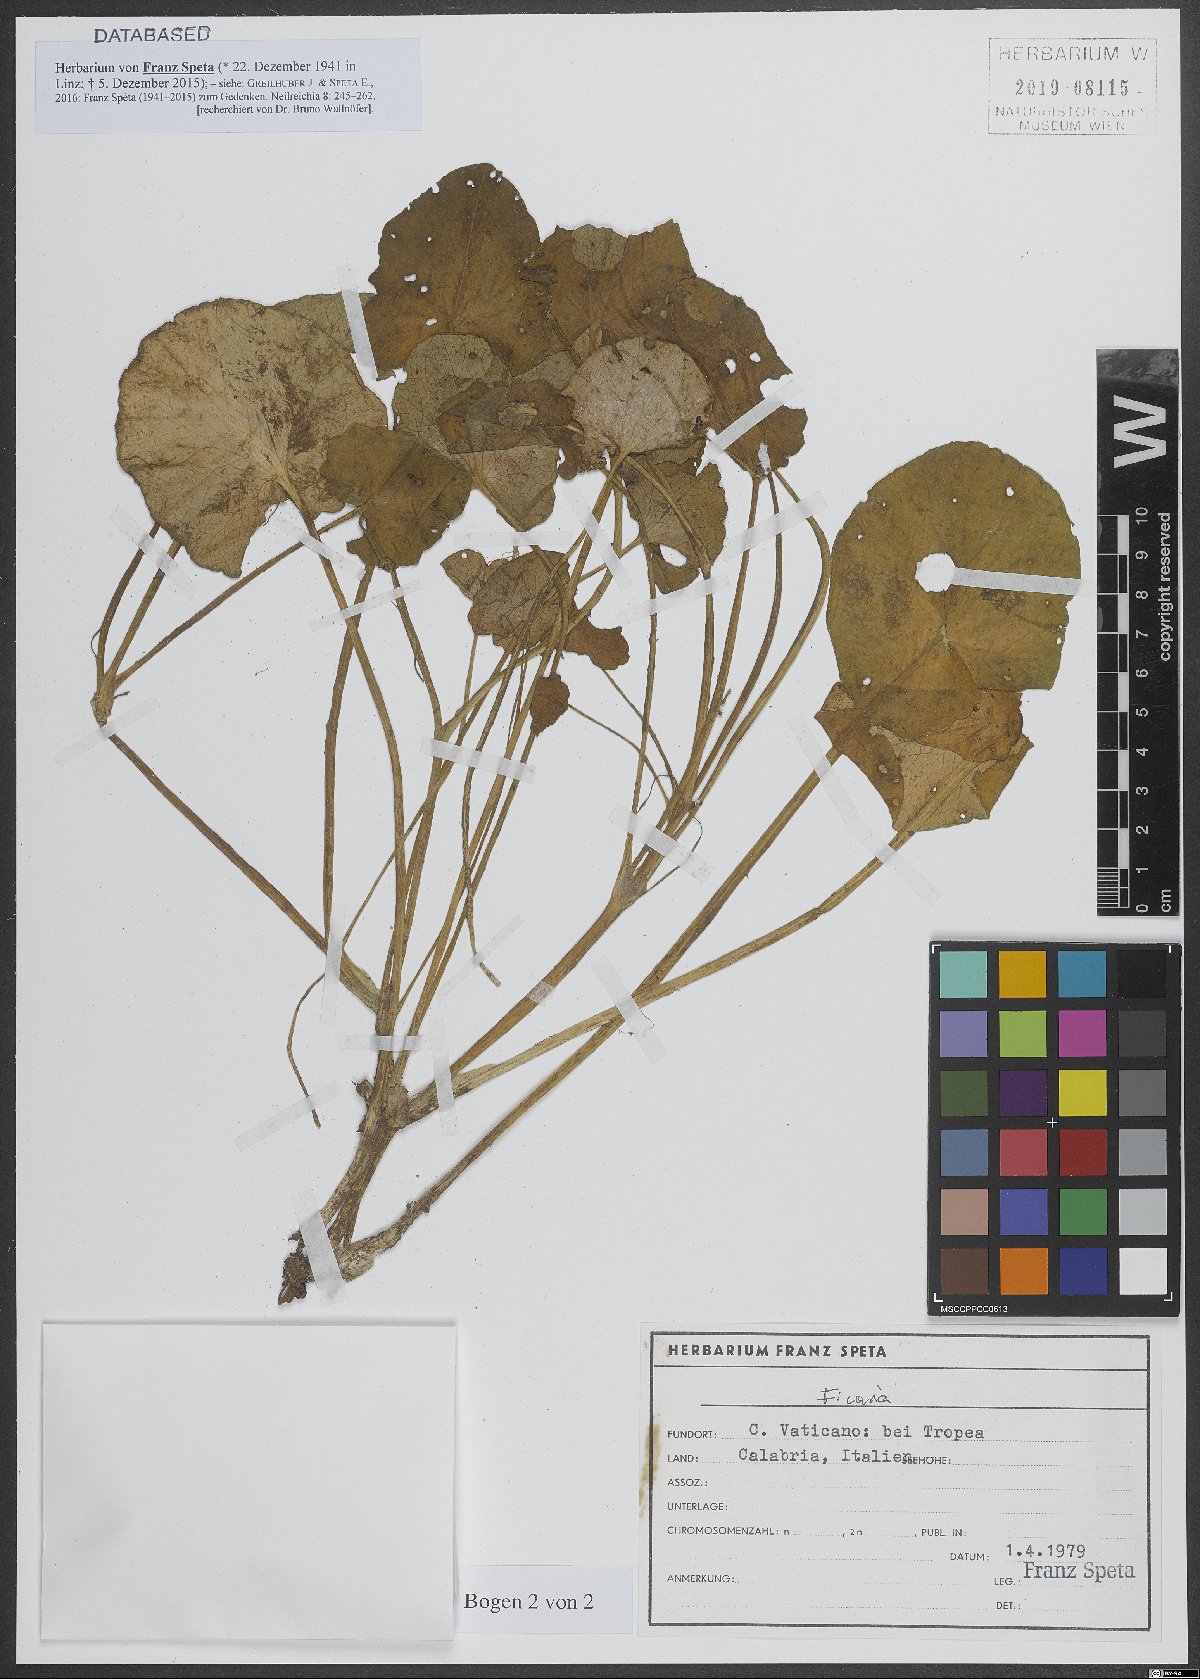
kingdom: Plantae
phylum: Tracheophyta
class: Magnoliopsida
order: Ranunculales
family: Ranunculaceae
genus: Ficaria
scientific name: Ficaria
